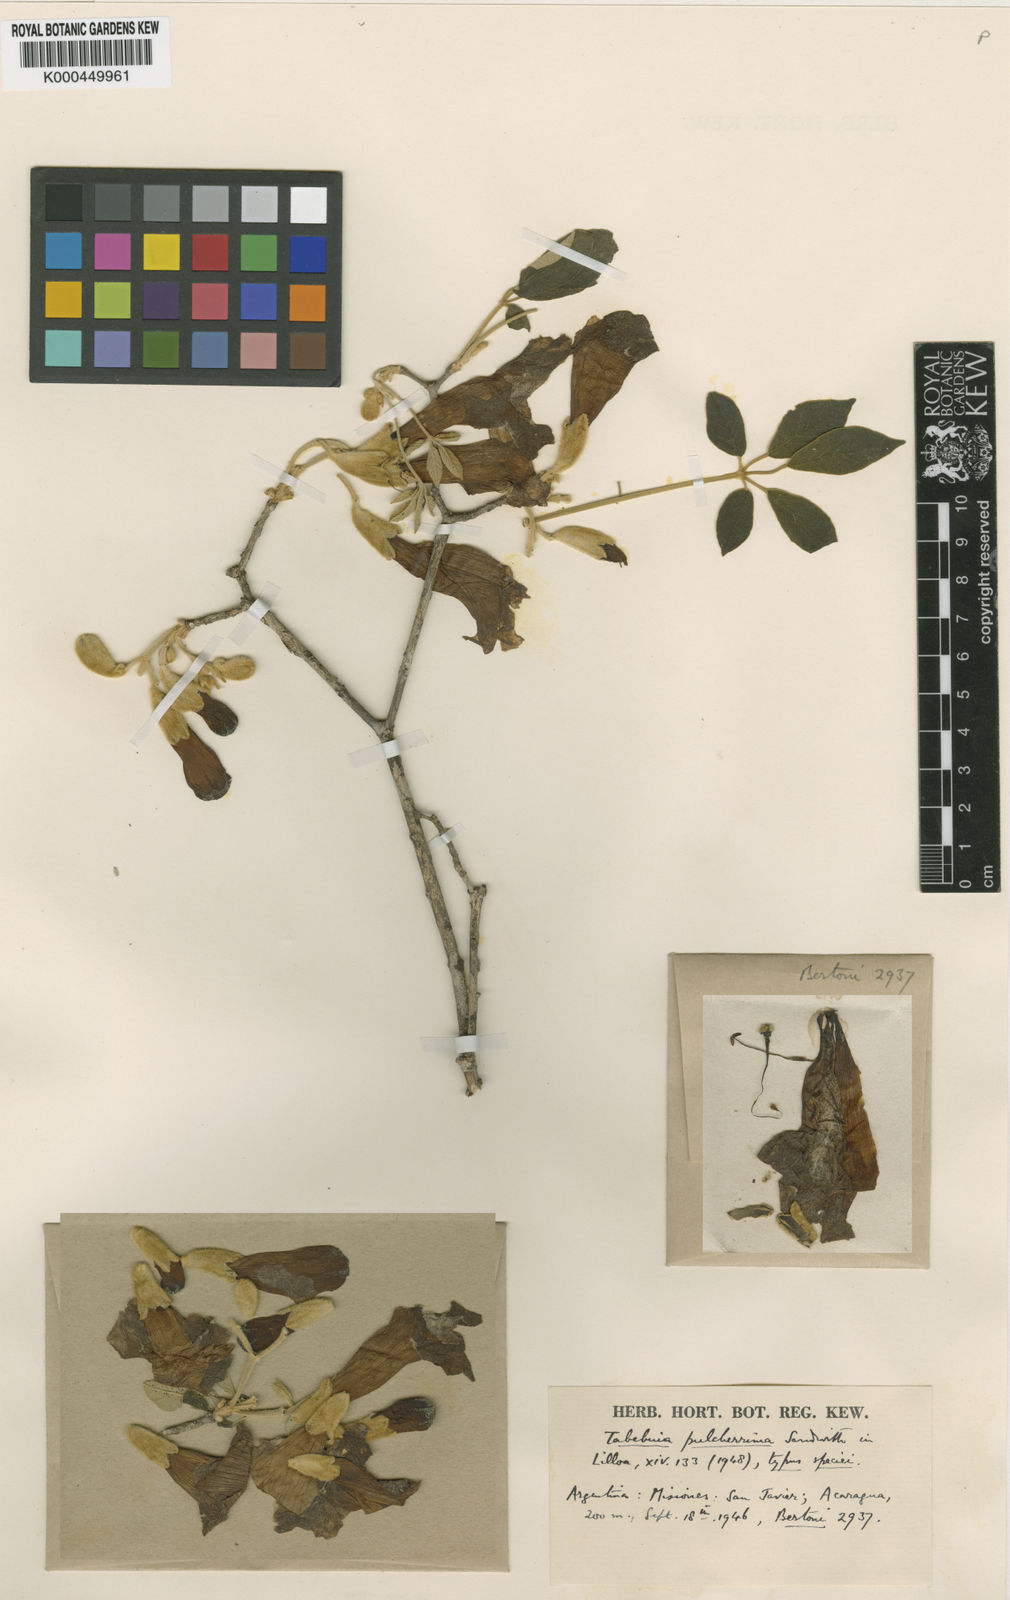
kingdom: Plantae
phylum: Tracheophyta
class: Magnoliopsida
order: Lamiales
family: Bignoniaceae
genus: Handroanthus
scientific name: Handroanthus pulcherrimus
